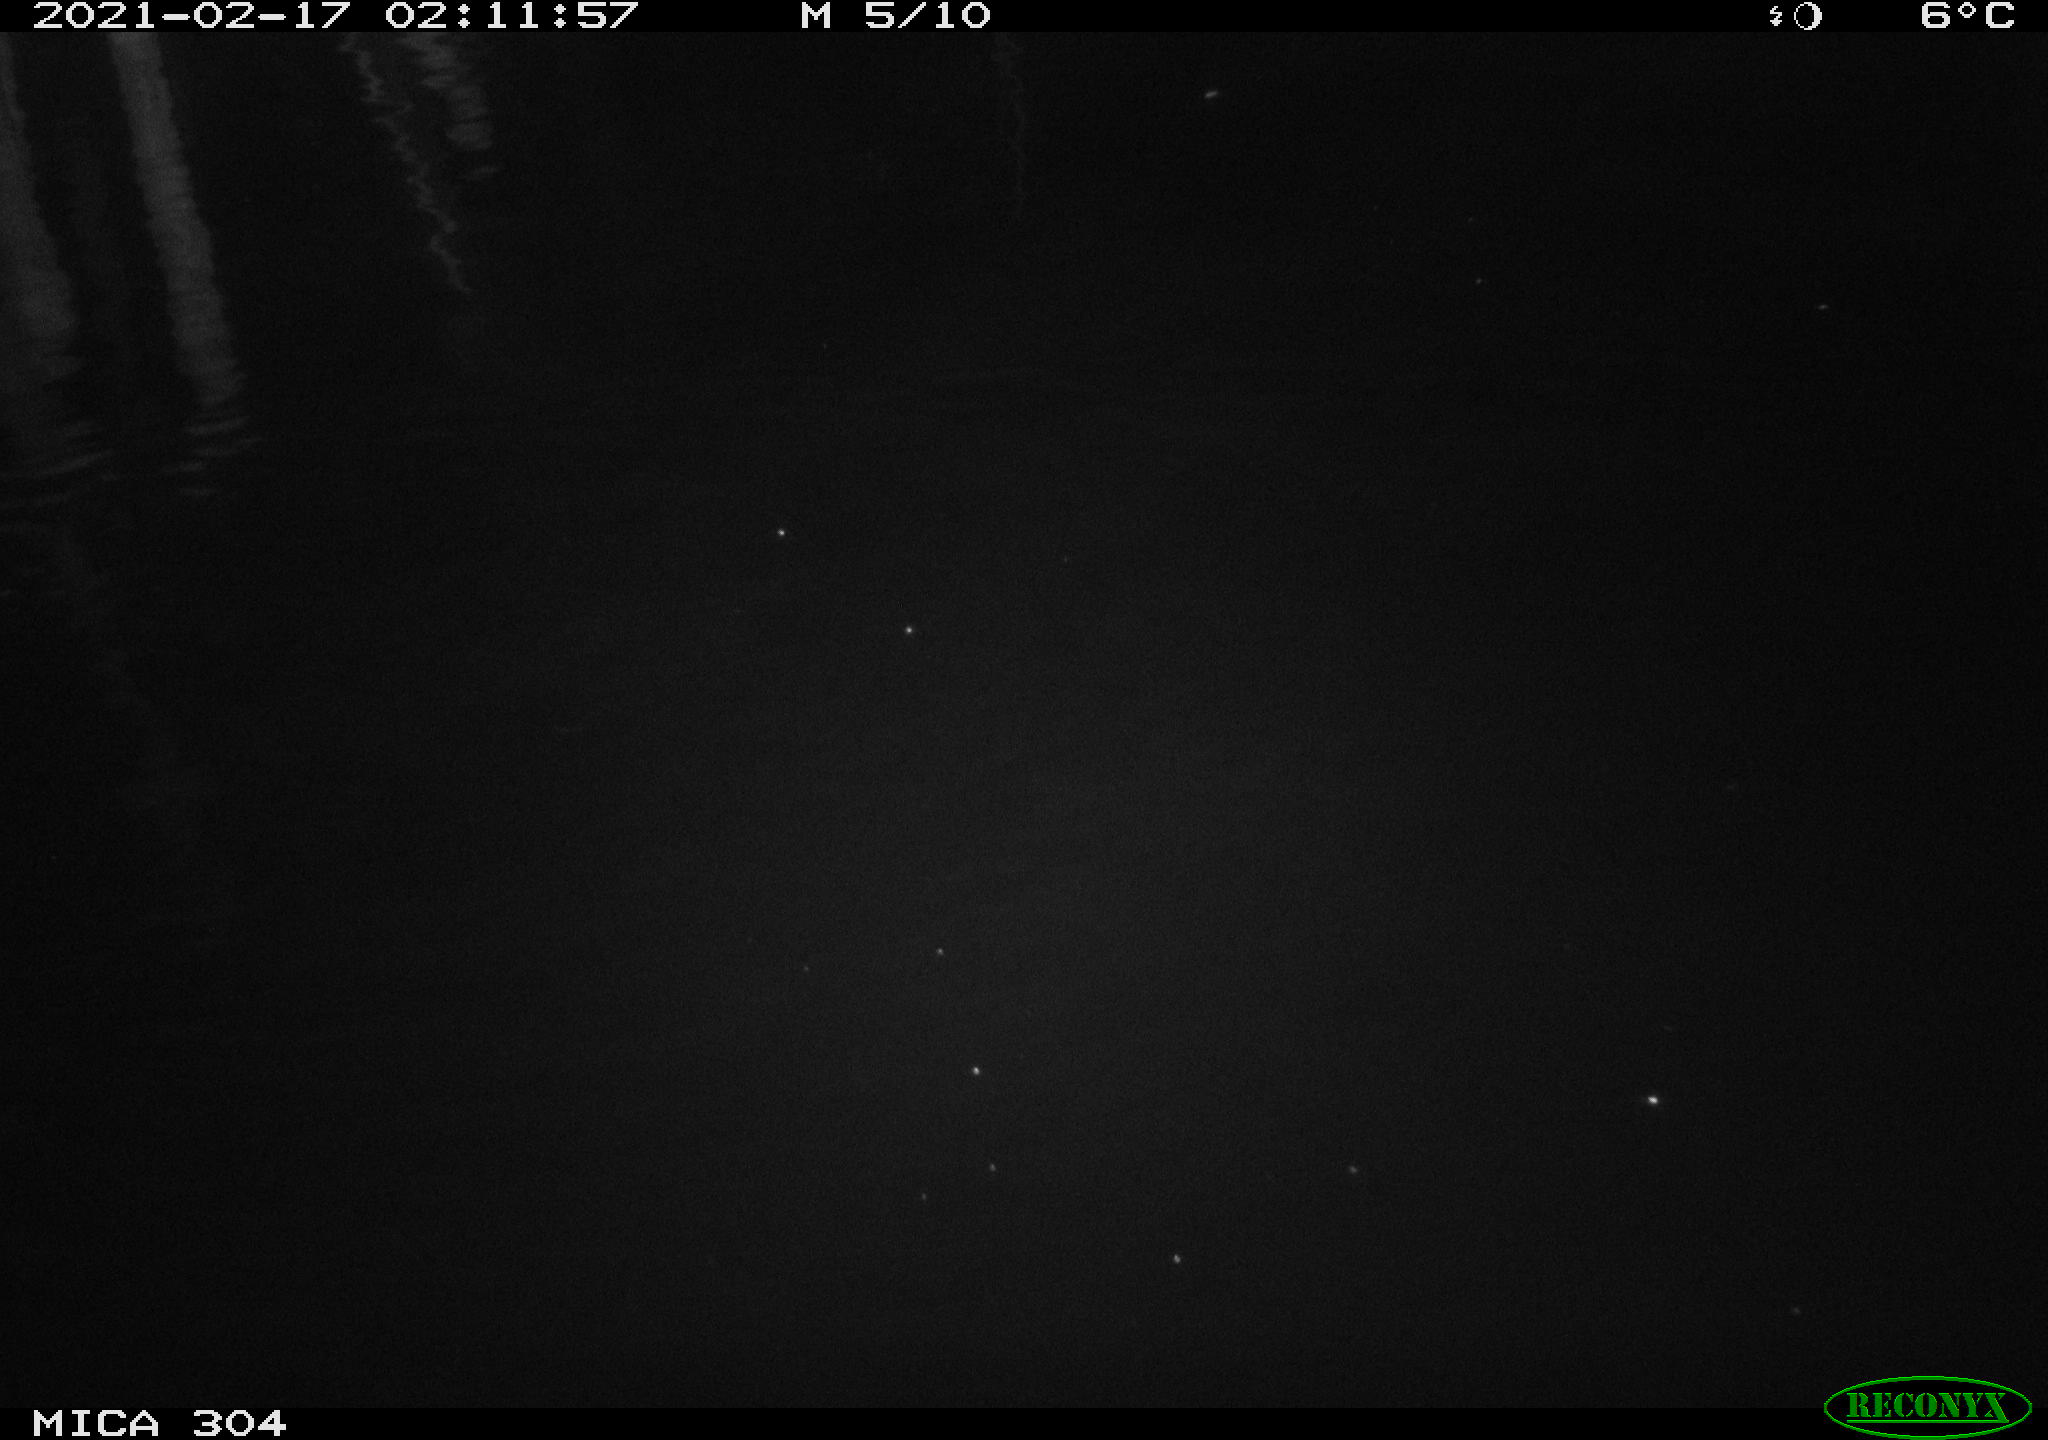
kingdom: Animalia
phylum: Chordata
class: Mammalia
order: Rodentia
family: Muridae
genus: Rattus
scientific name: Rattus norvegicus
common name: Brown rat
